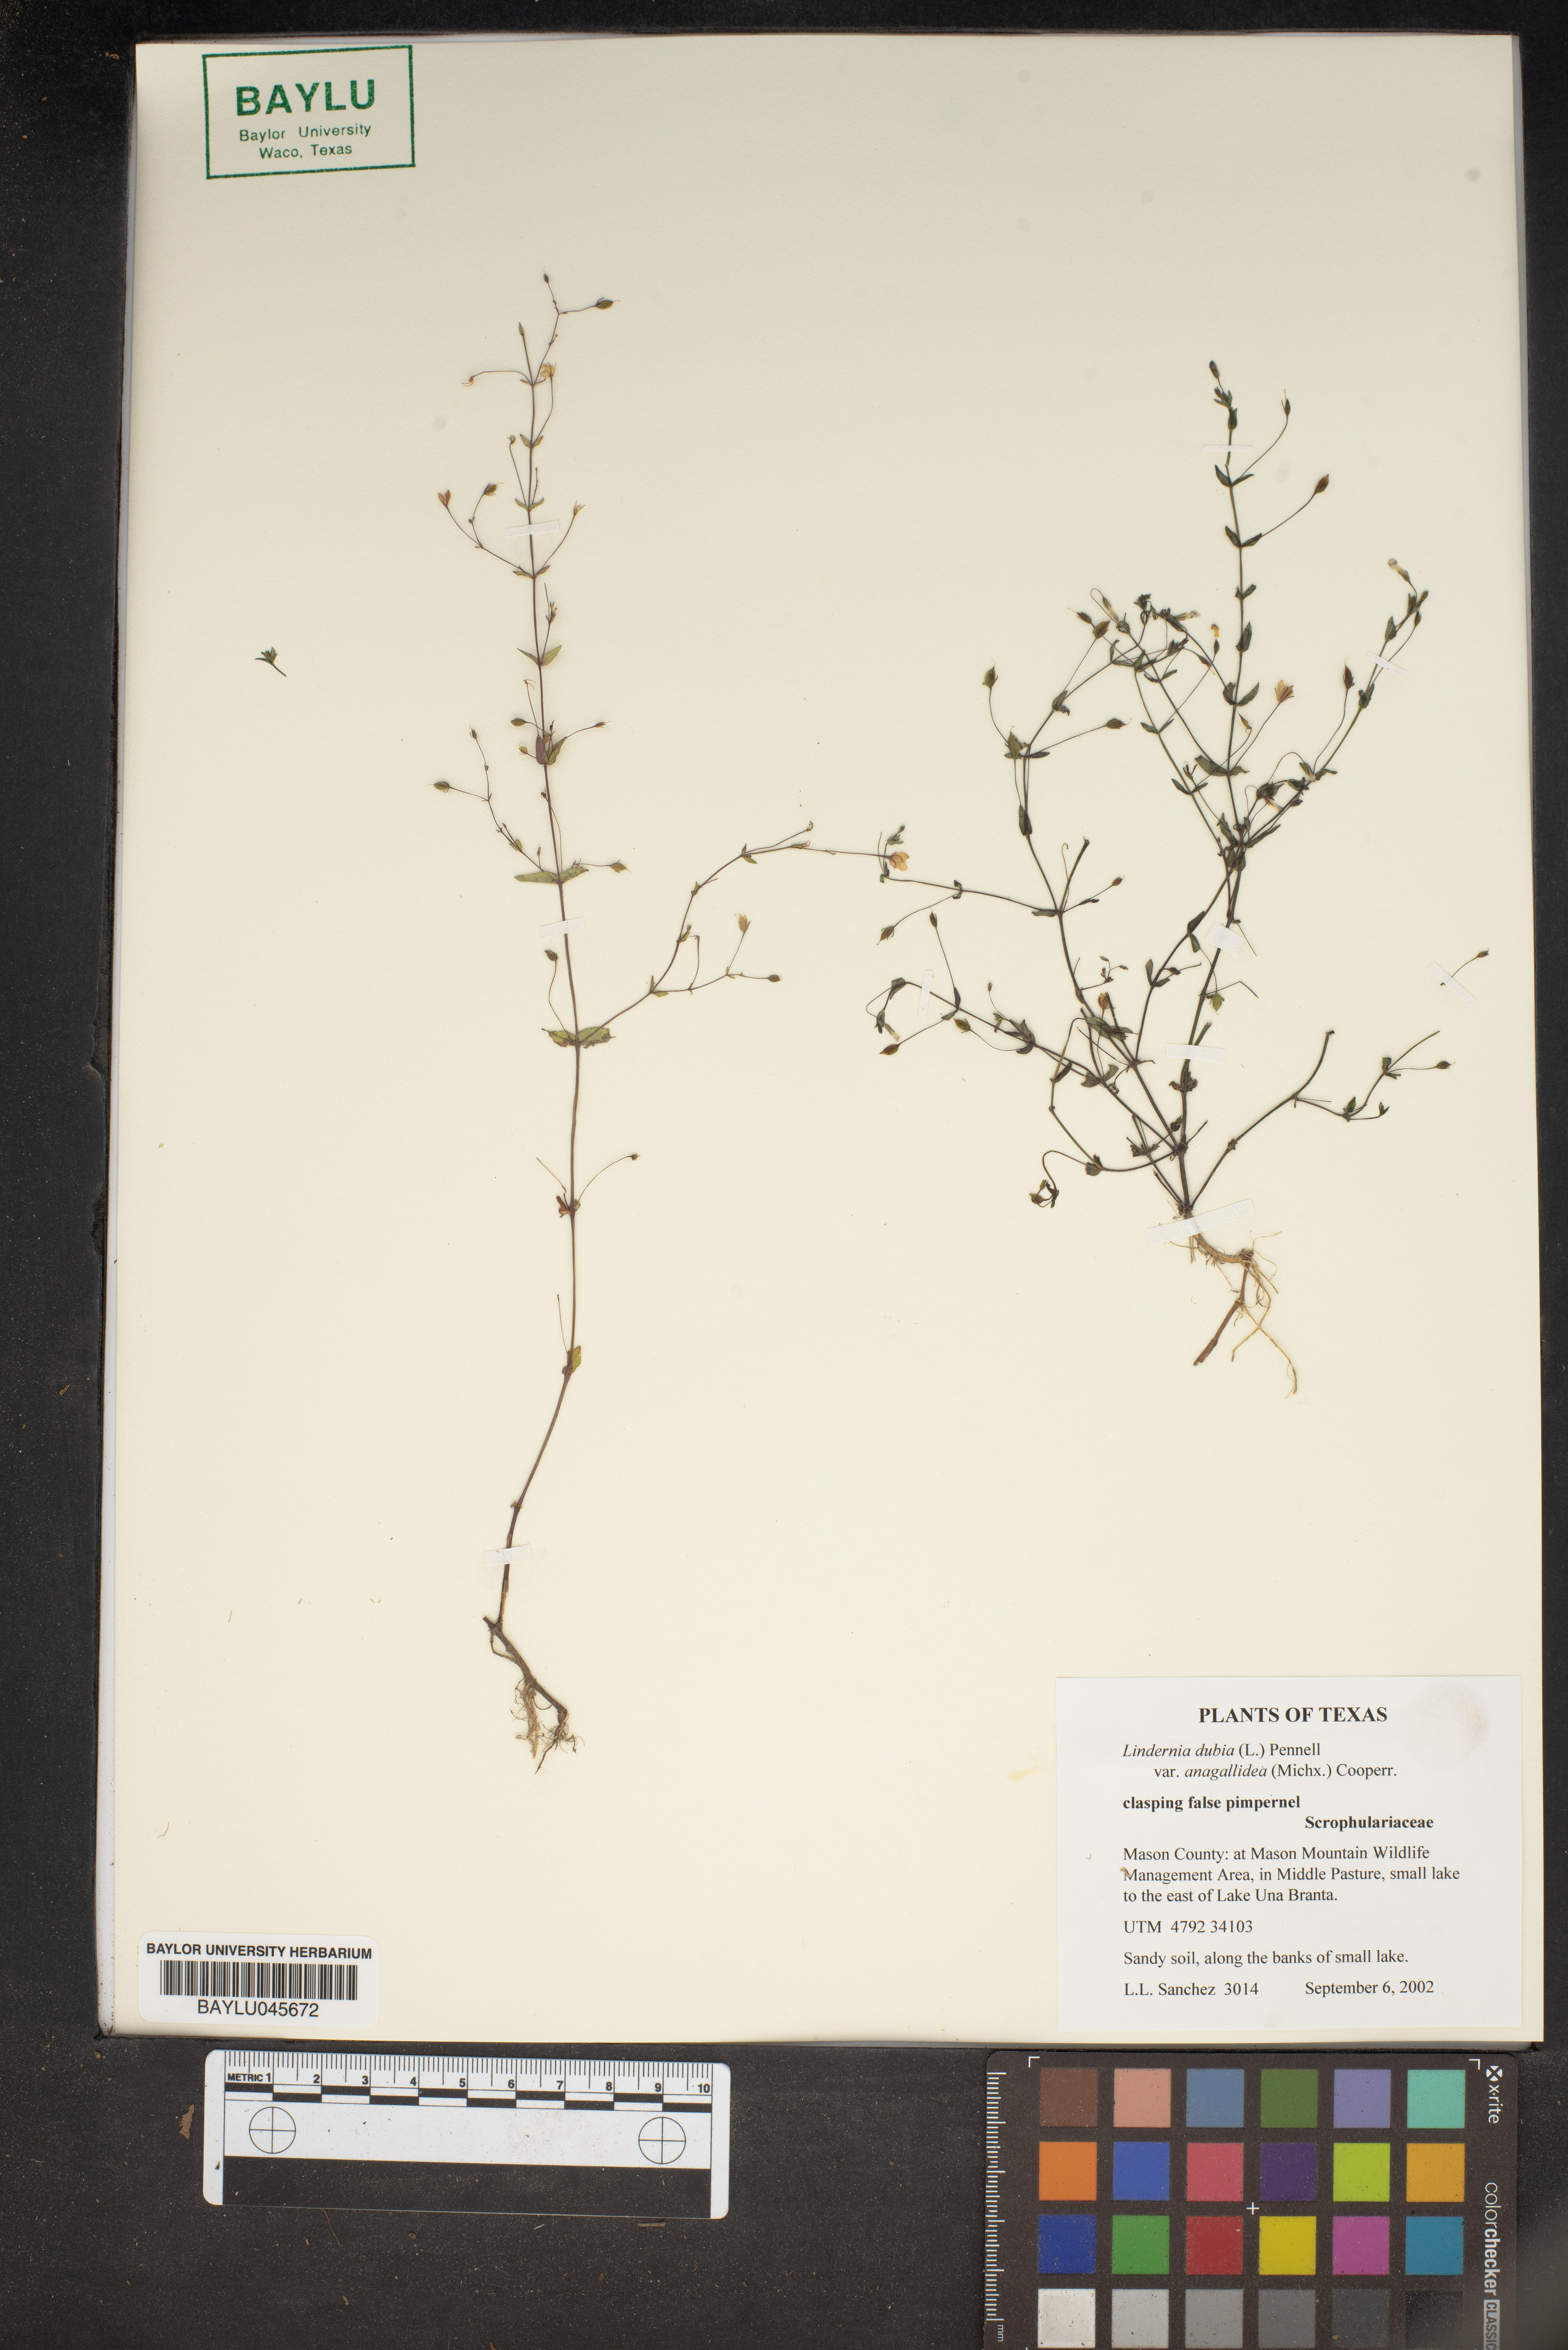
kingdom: Plantae
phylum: Tracheophyta
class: Magnoliopsida
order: Lamiales
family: Linderniaceae
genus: Lindernia
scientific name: Lindernia dubia
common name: Annual false pimpernel
